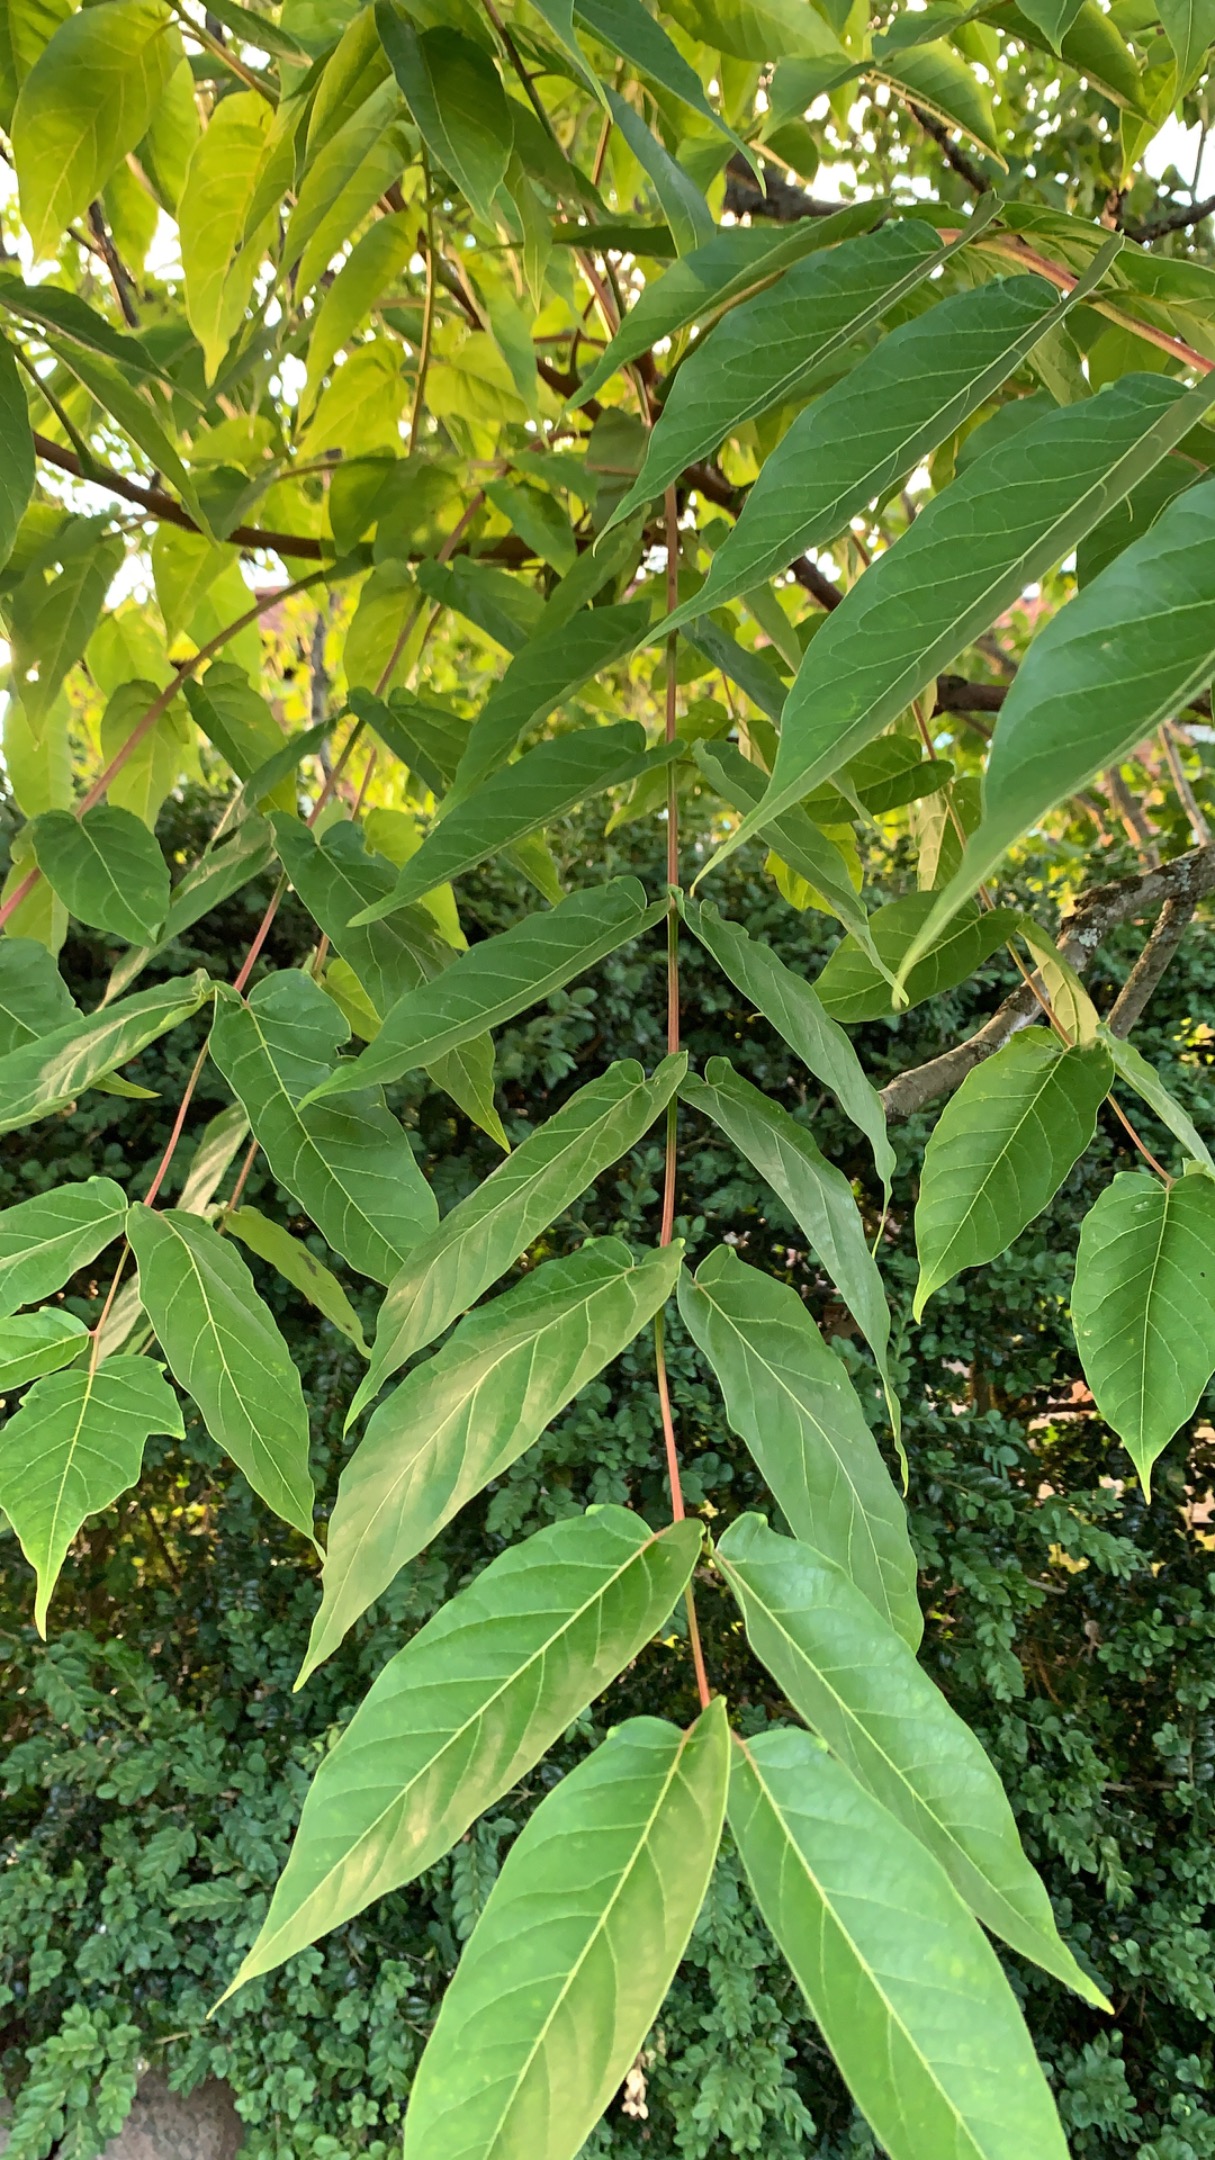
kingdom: Plantae
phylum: Tracheophyta
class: Magnoliopsida
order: Sapindales
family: Simaroubaceae
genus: Ailanthus
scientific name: Ailanthus altissima
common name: Skyrækker
